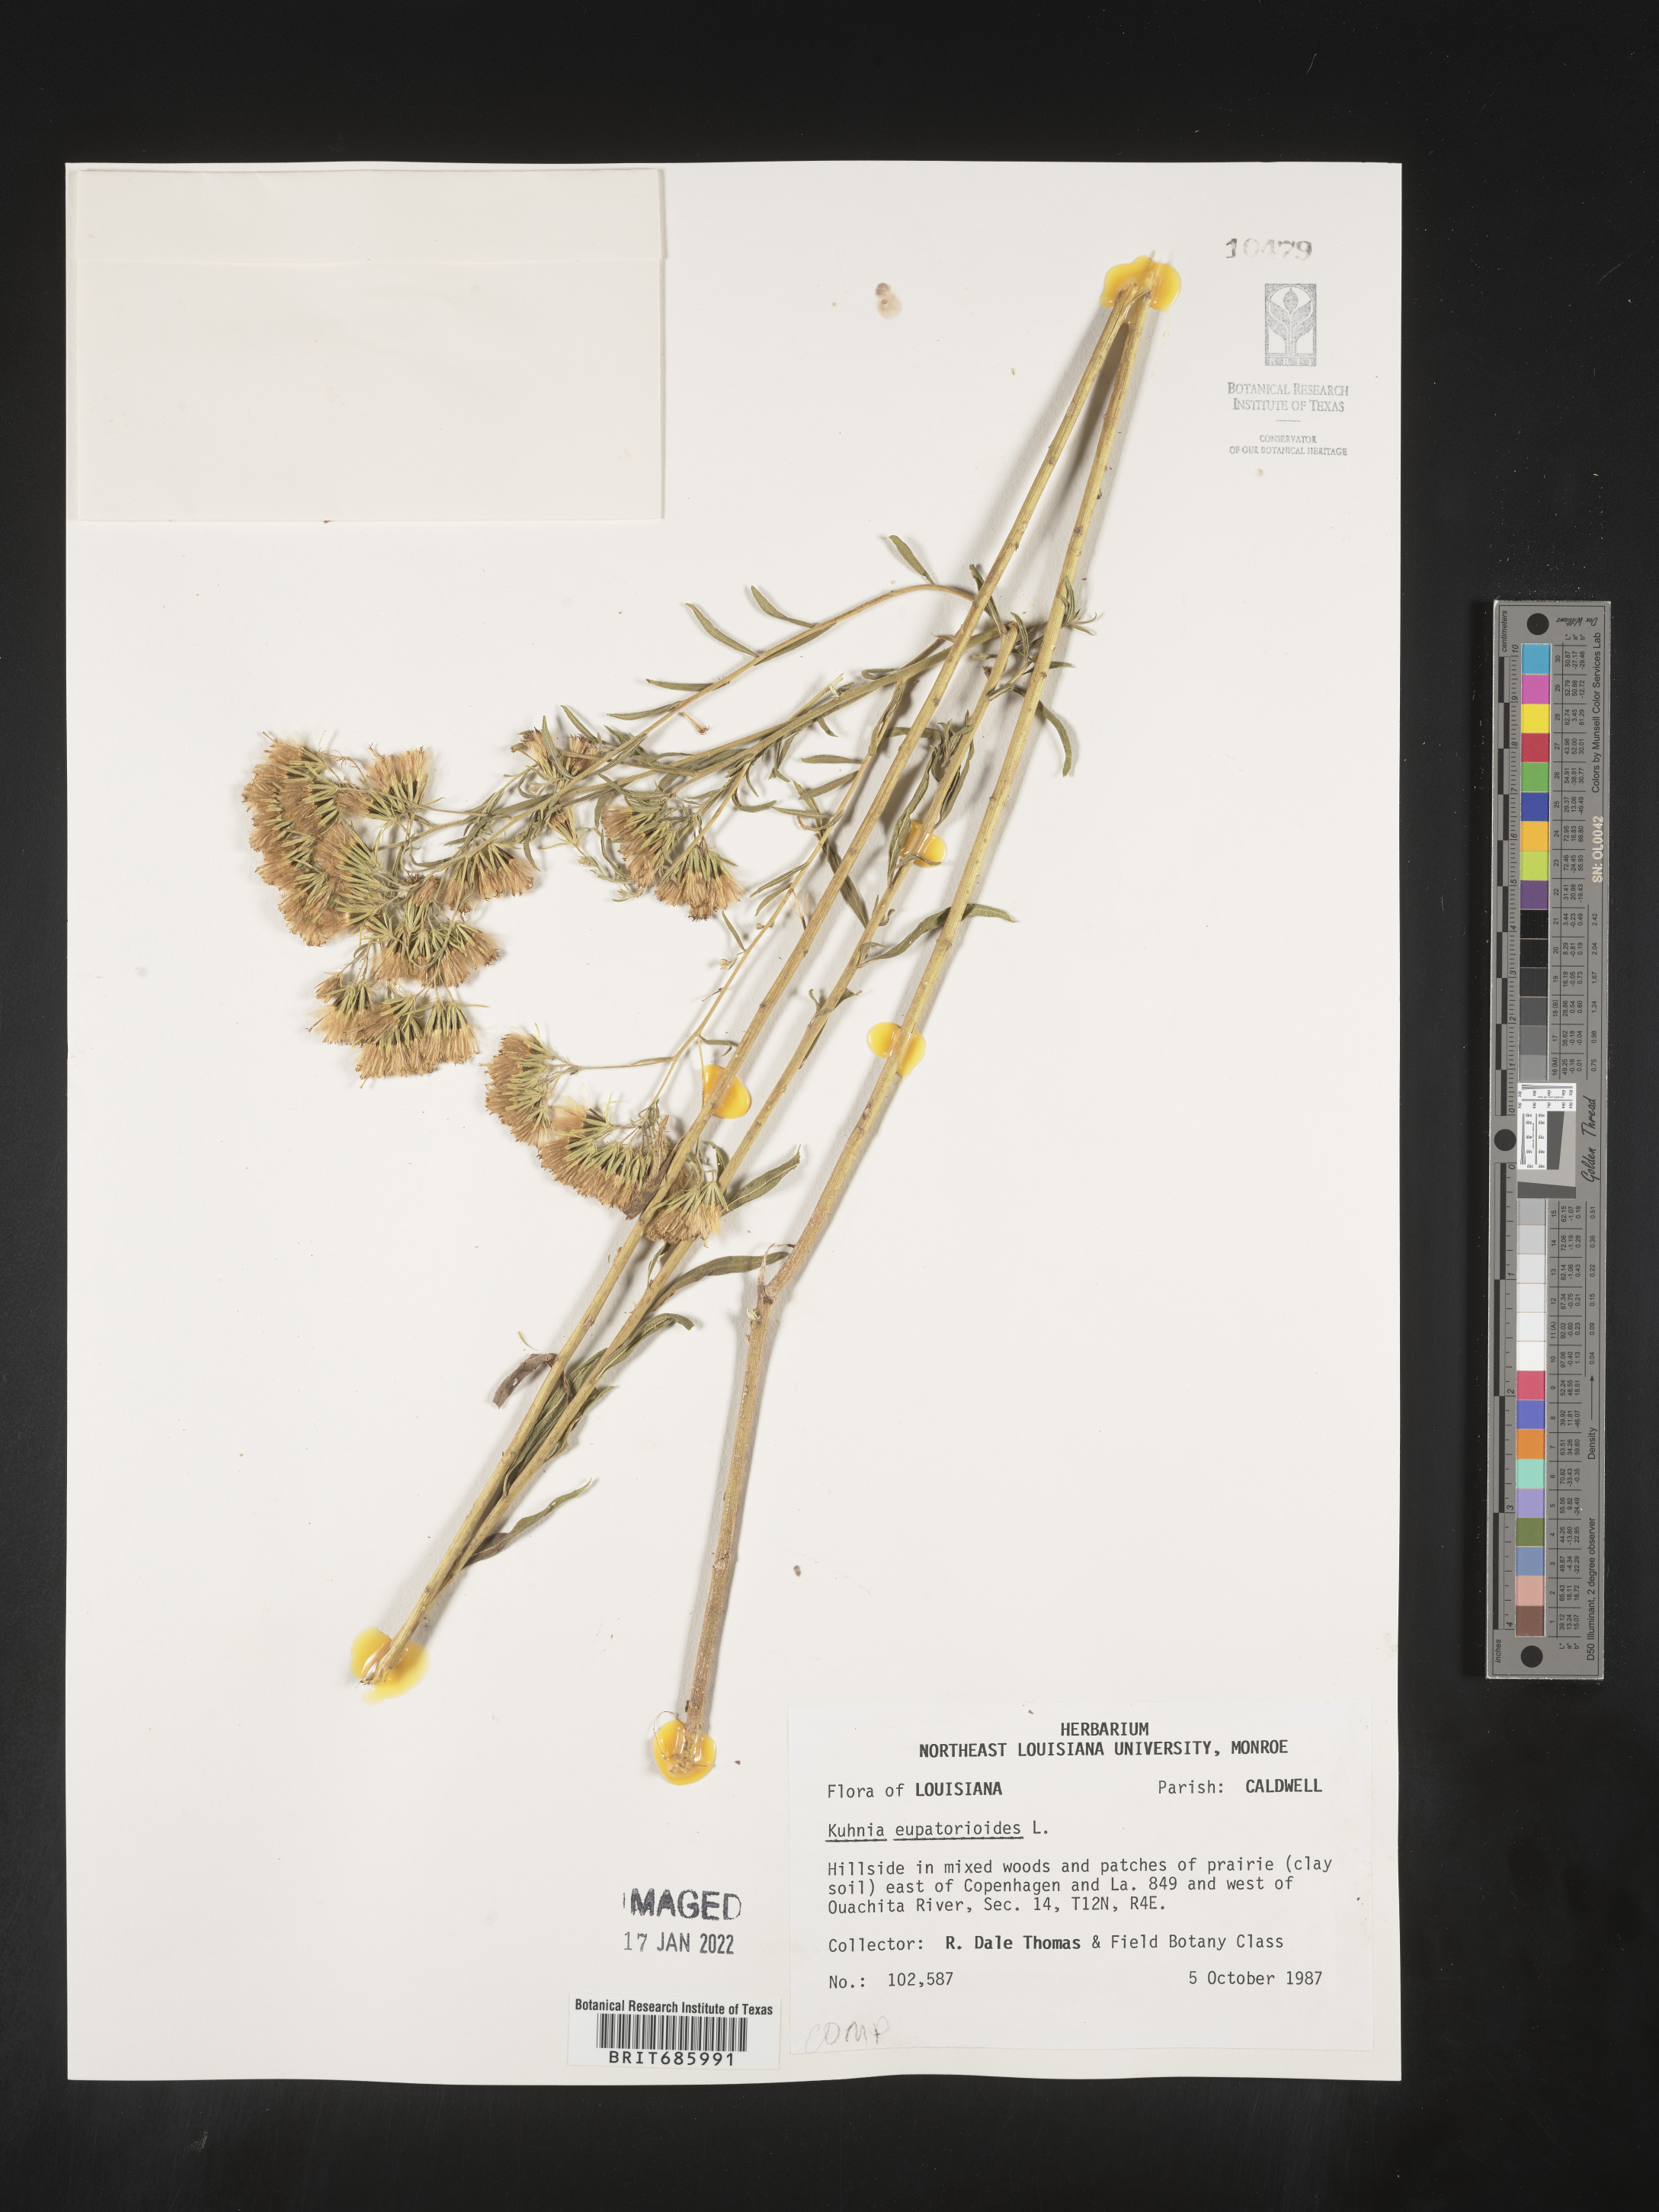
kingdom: Plantae
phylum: Tracheophyta
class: Magnoliopsida
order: Asterales
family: Asteraceae
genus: Brickellia
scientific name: Brickellia eupatorioides
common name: False boneset
